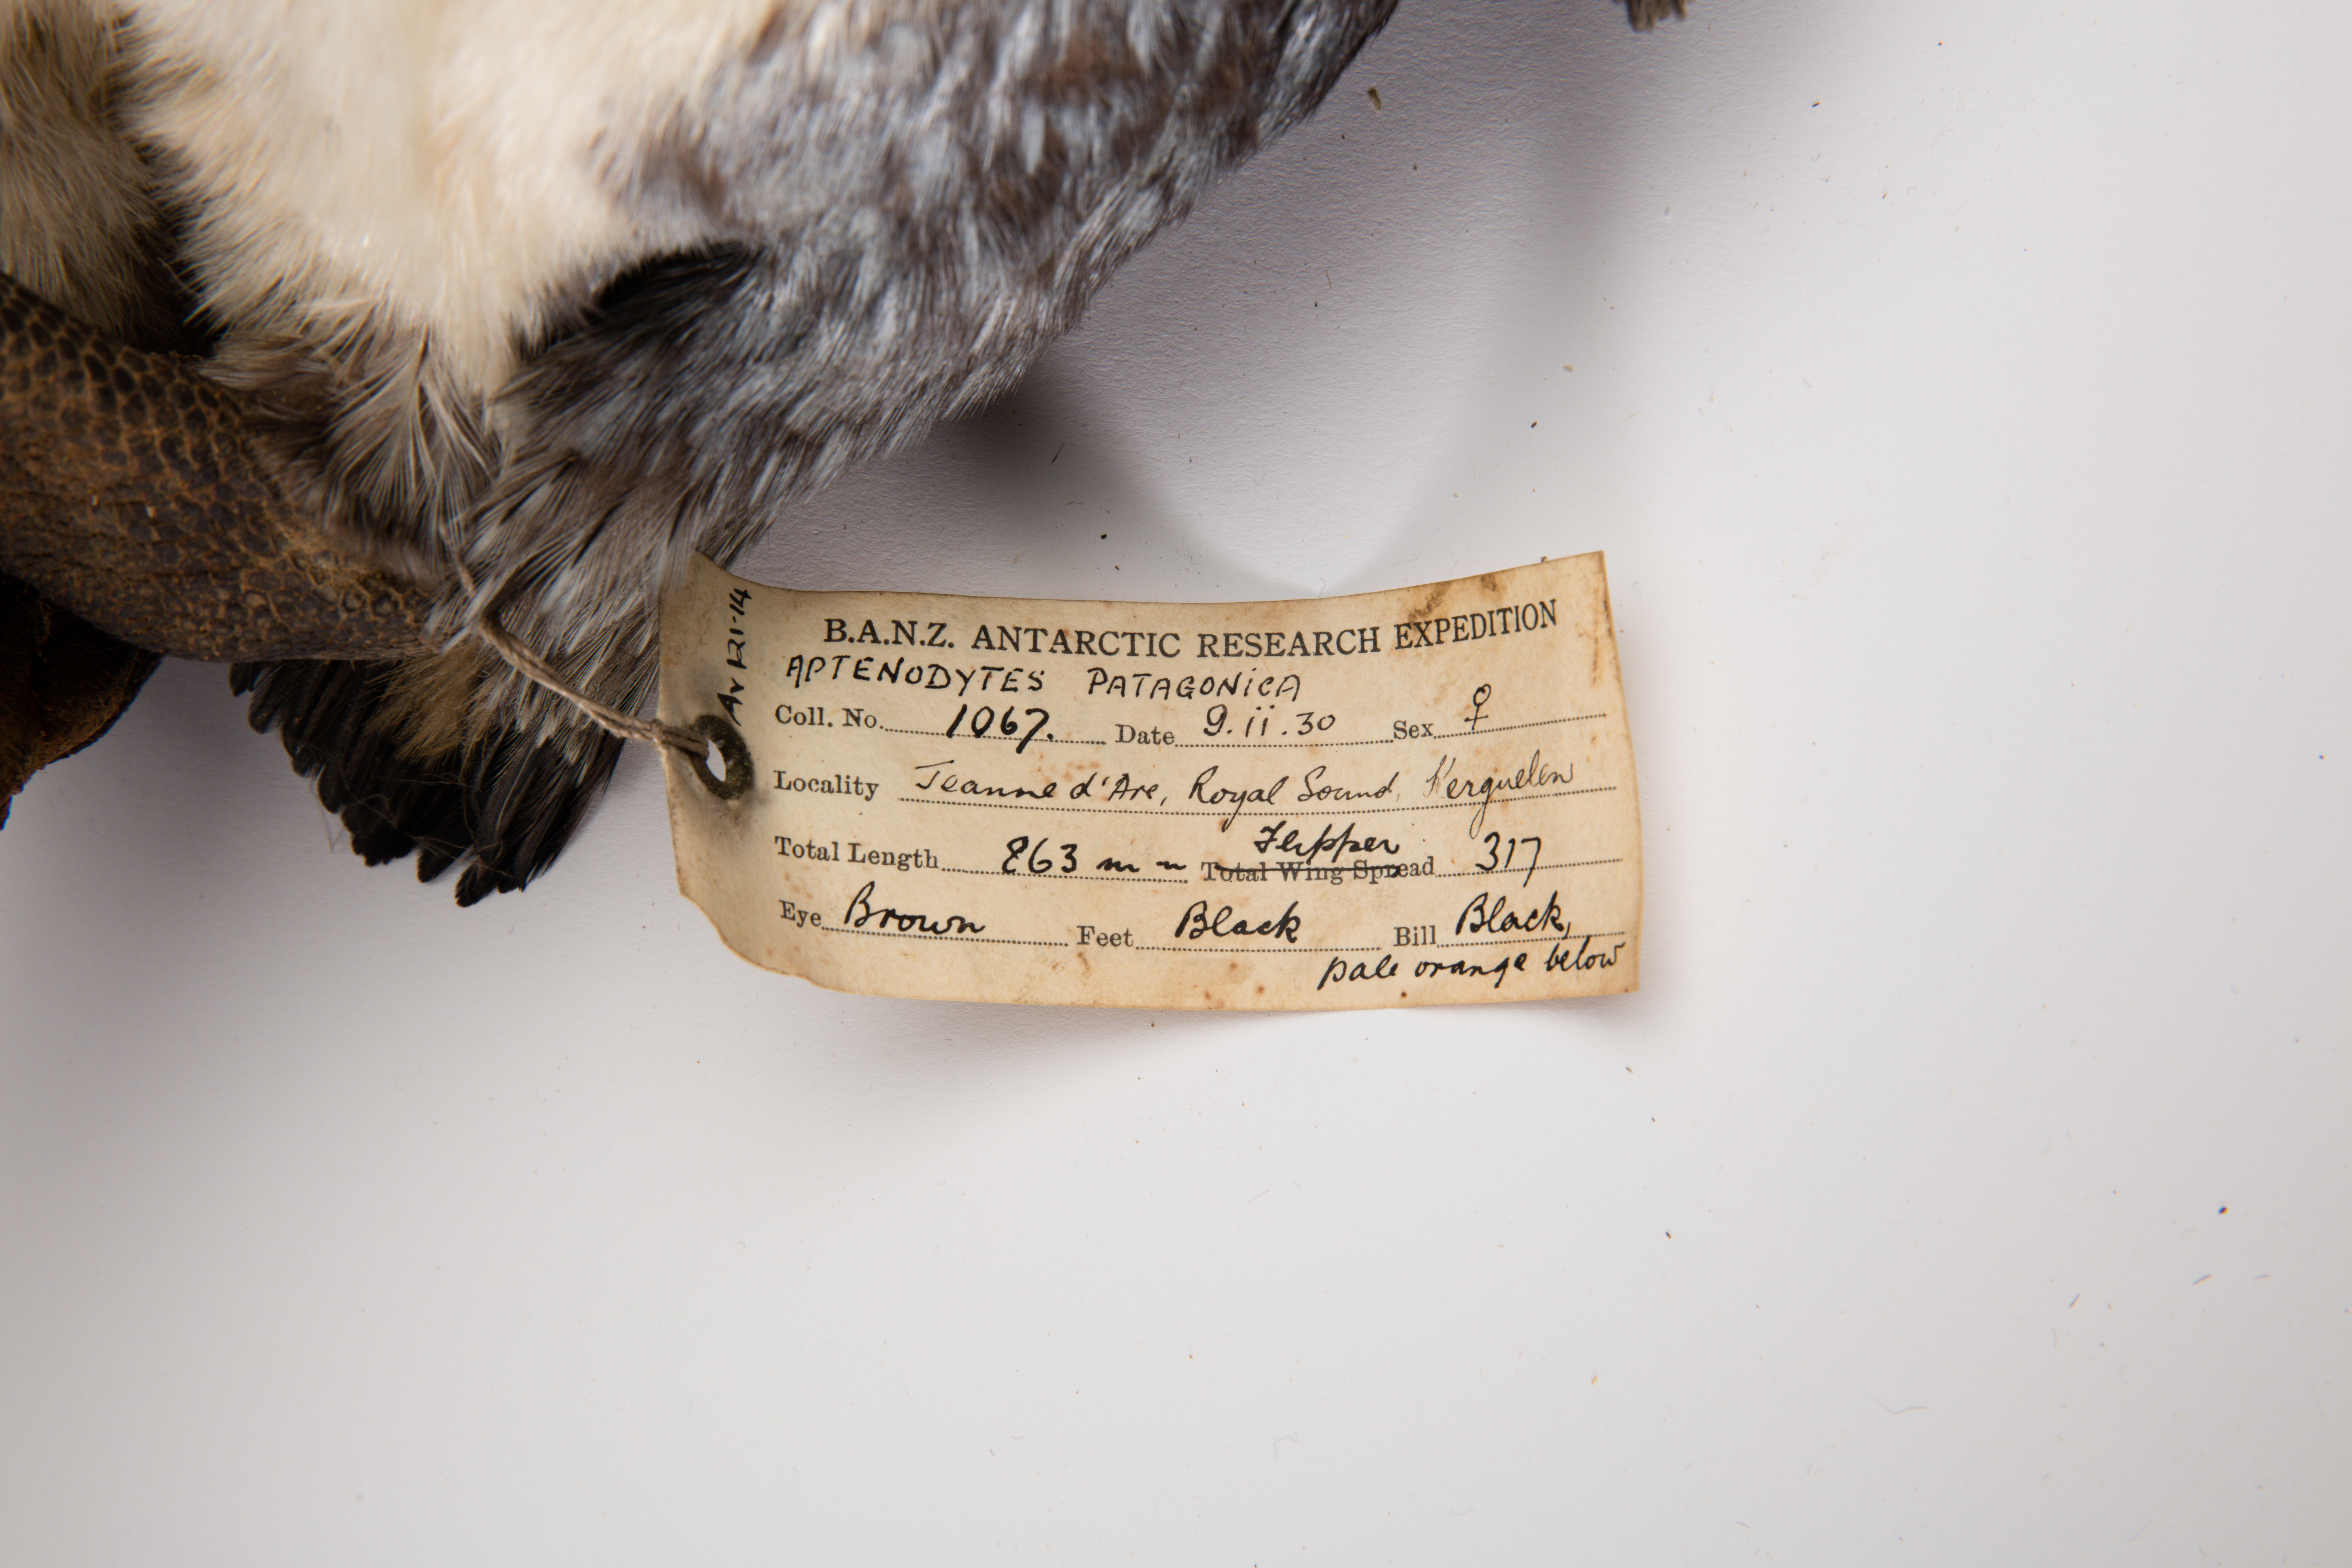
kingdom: Animalia
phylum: Chordata
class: Aves
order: Sphenisciformes
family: Spheniscidae
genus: Aptenodytes
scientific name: Aptenodytes patagonicus
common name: King penguin
